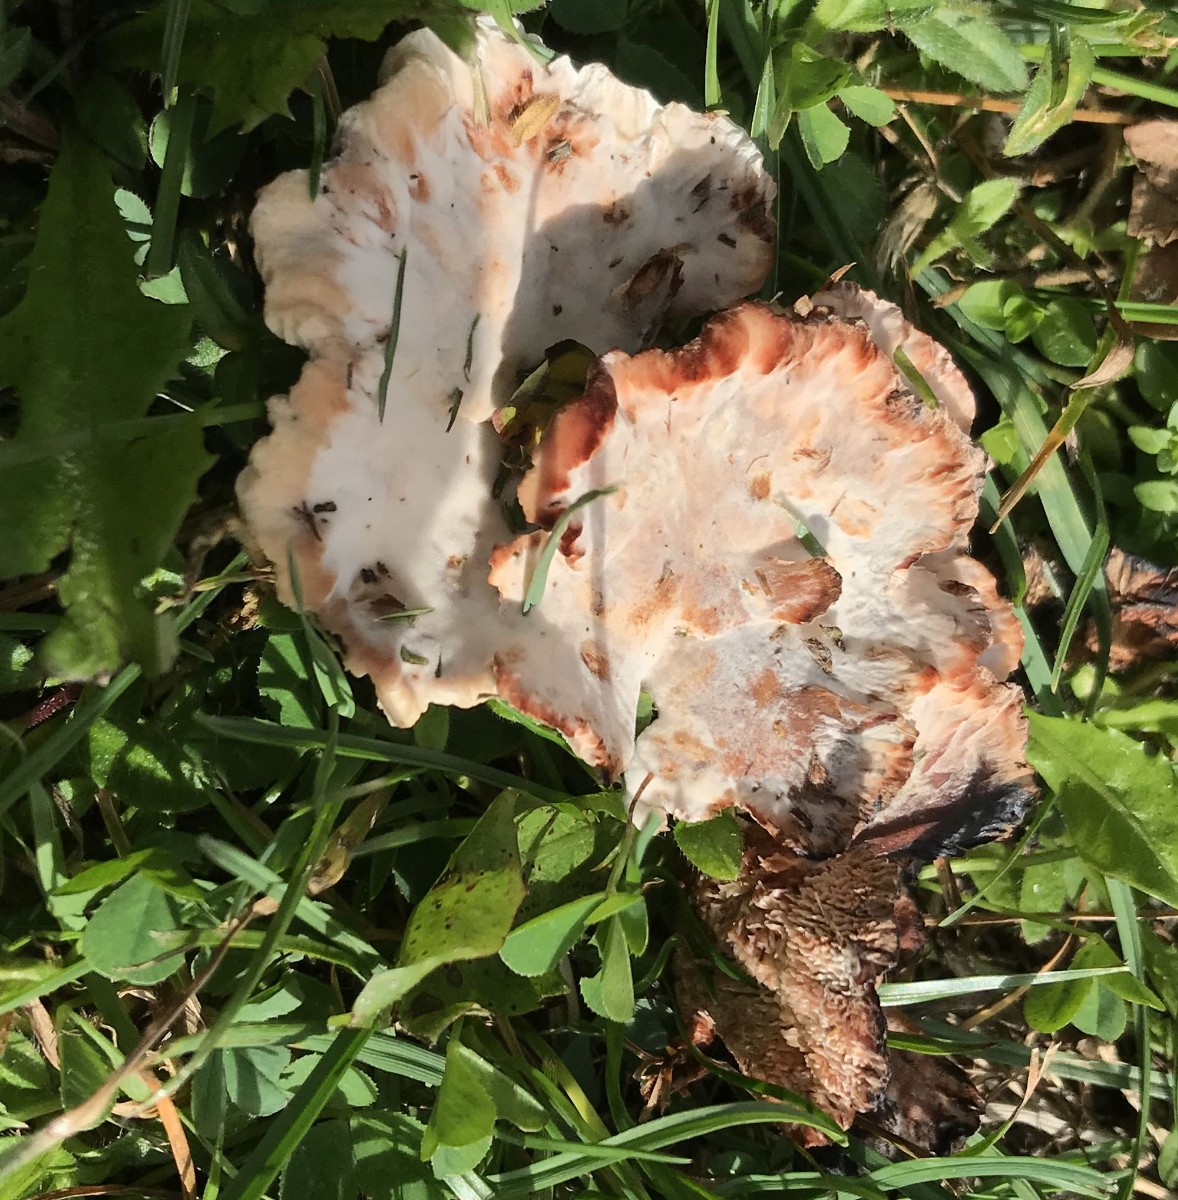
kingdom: Fungi
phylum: Basidiomycota
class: Agaricomycetes
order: Polyporales
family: Podoscyphaceae
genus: Abortiporus
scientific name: Abortiporus biennis
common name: rødmende pjalteporesvamp
